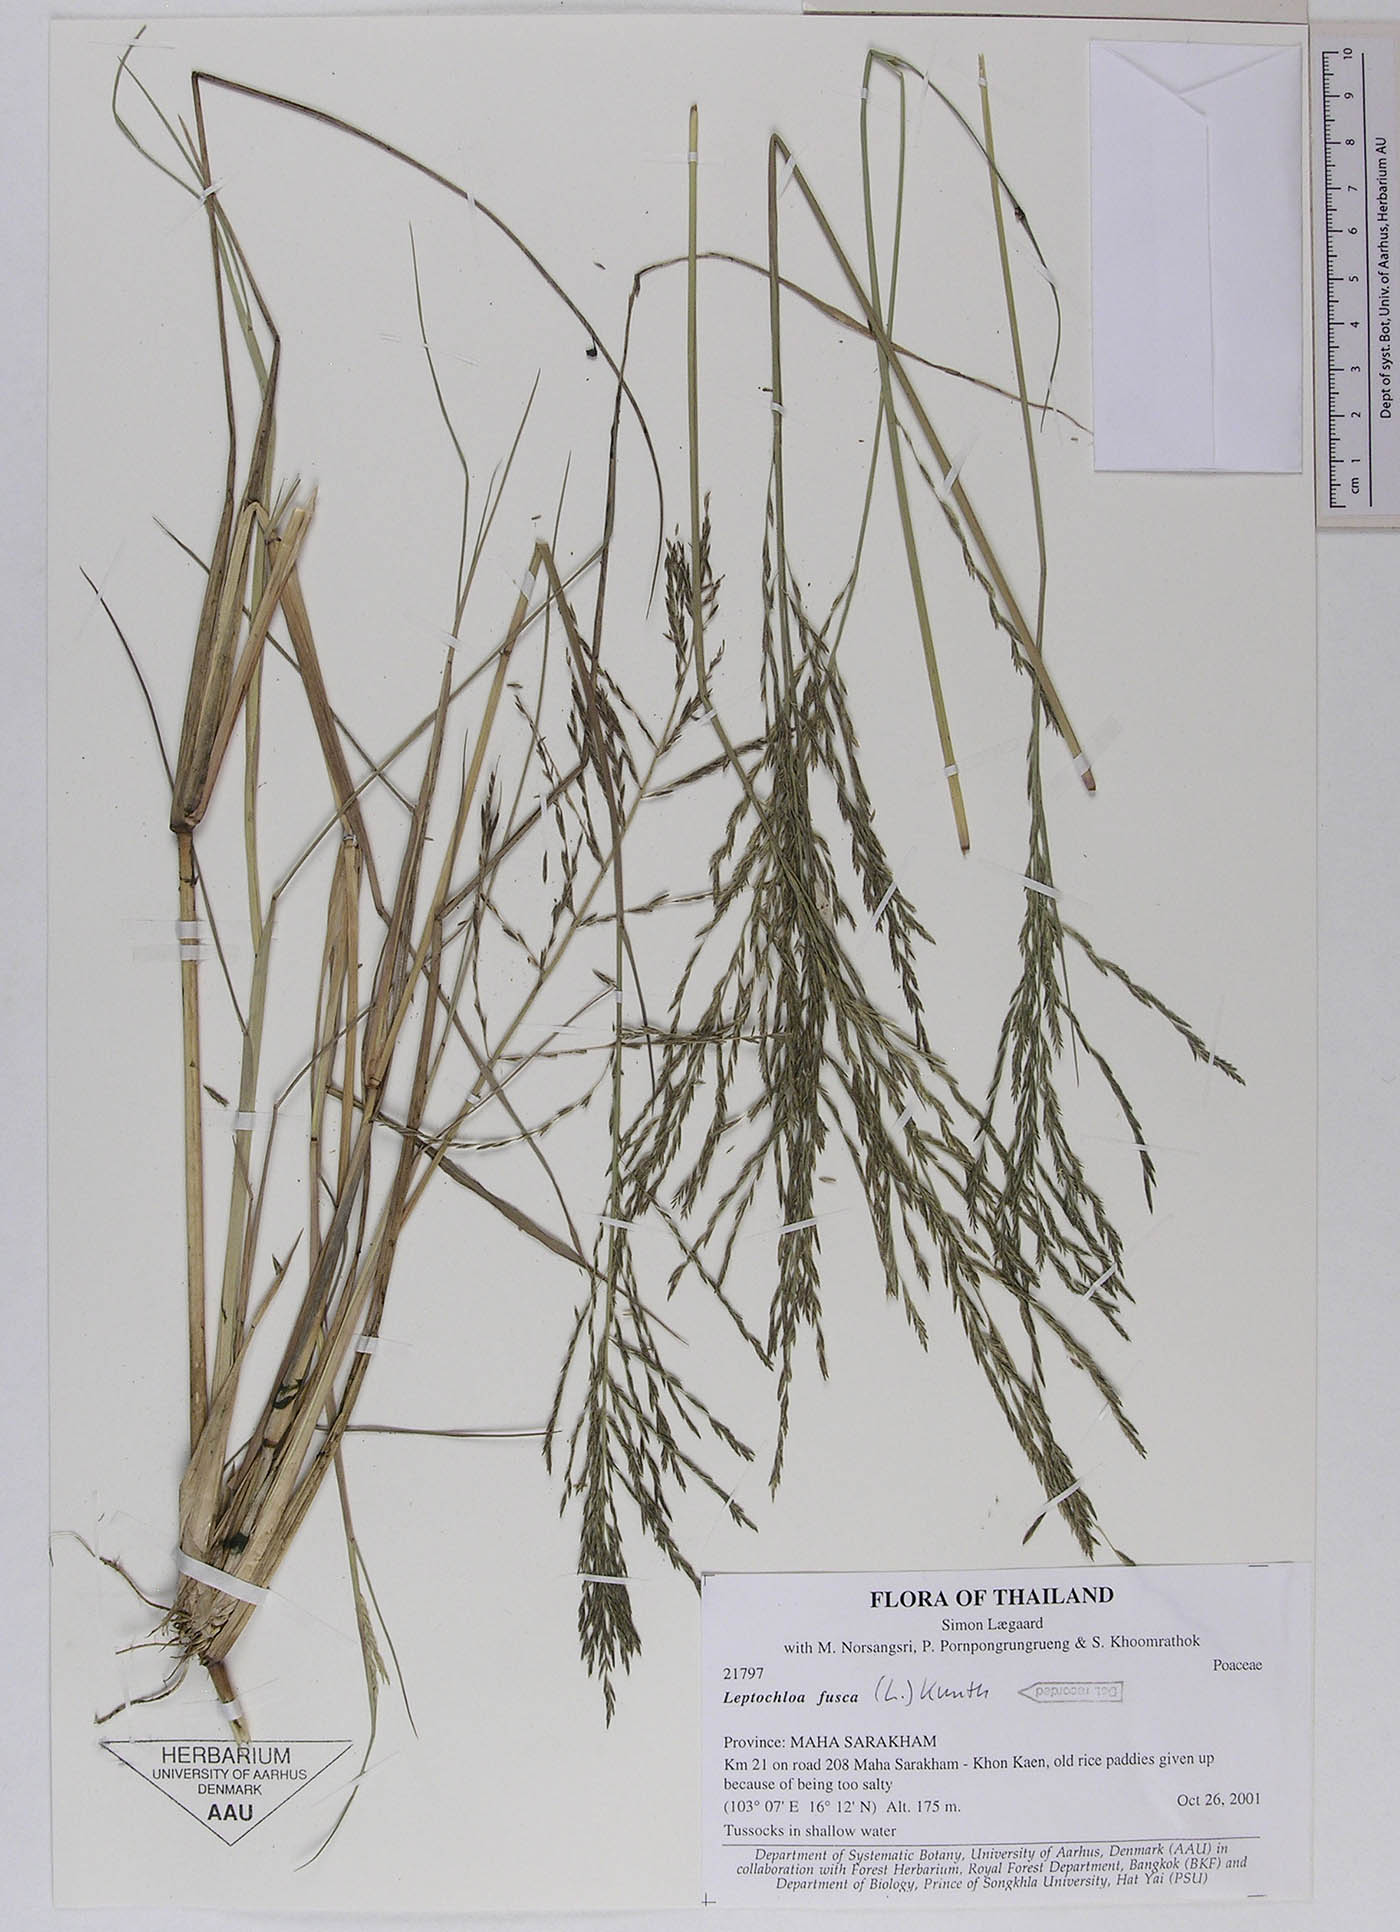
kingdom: Plantae
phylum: Tracheophyta
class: Liliopsida
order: Poales
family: Poaceae
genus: Diplachne
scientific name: Diplachne fusca
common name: Brown beetle grass
